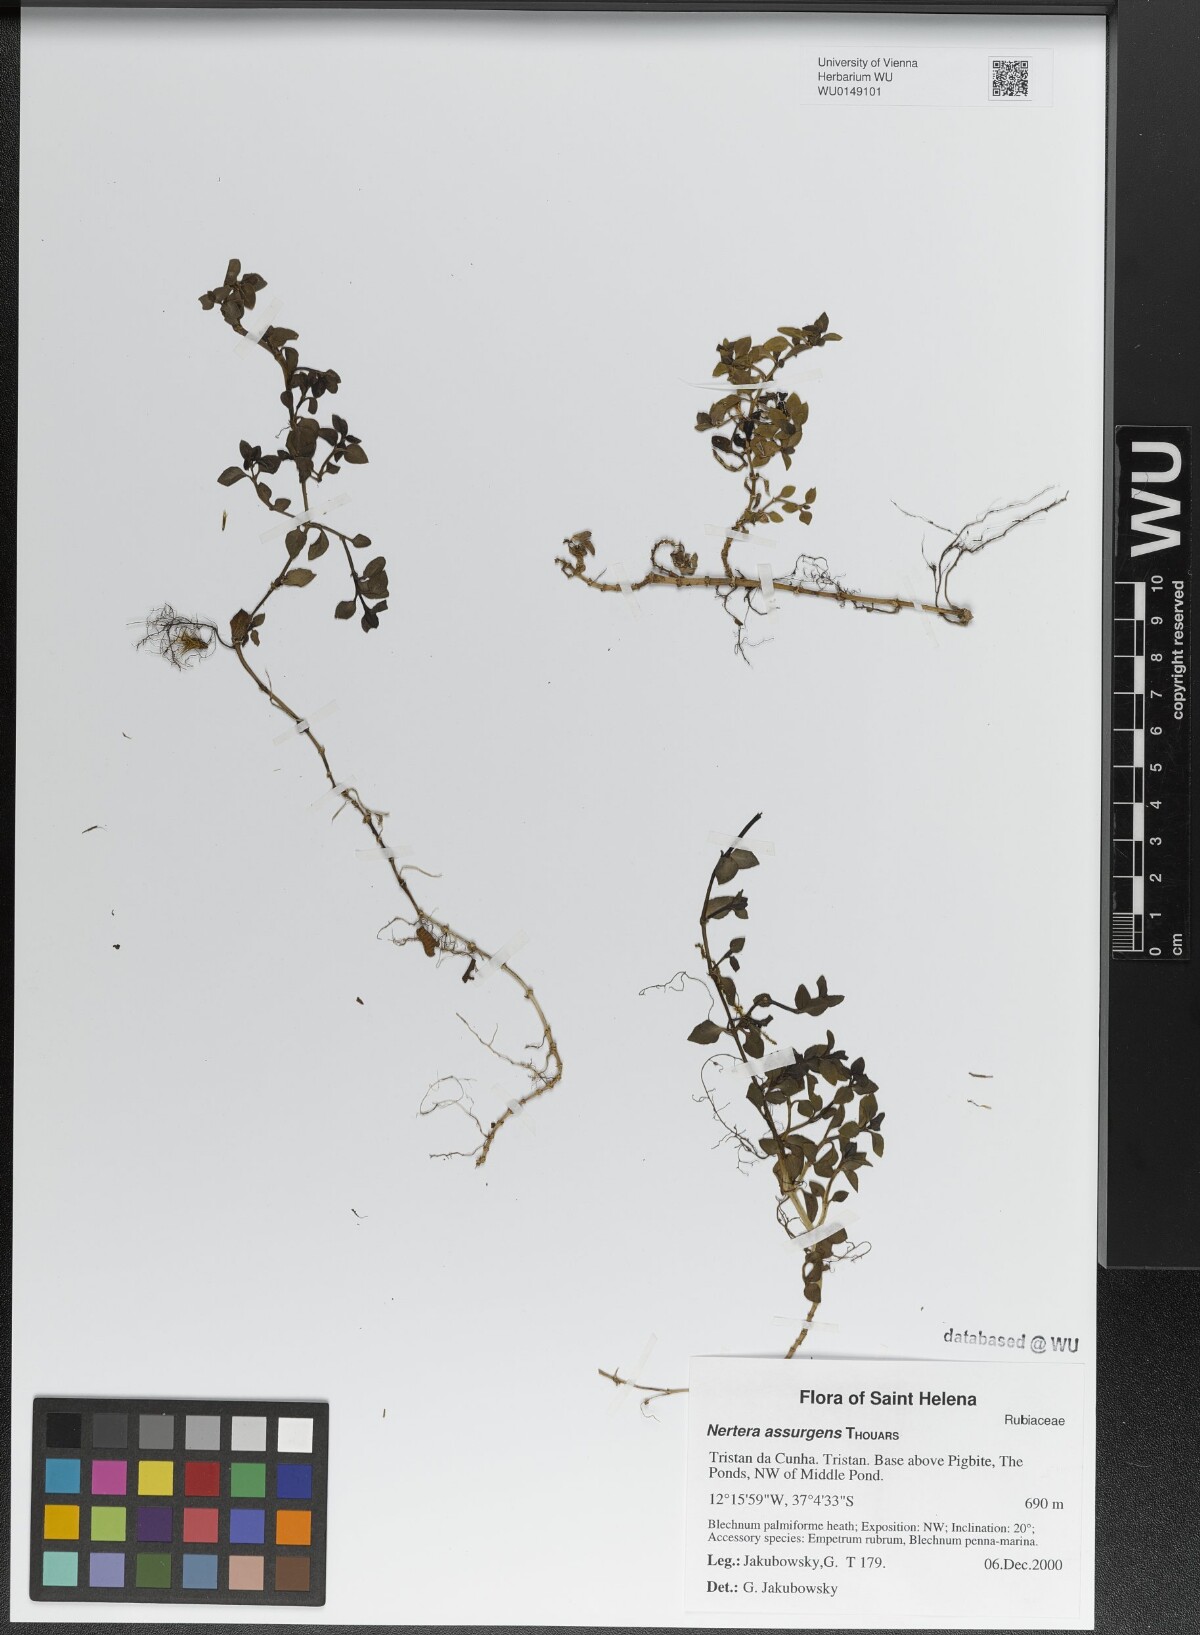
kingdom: Plantae
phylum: Tracheophyta
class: Magnoliopsida
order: Gentianales
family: Rubiaceae
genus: Nertera
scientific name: Nertera granadensis
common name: Beadplant
